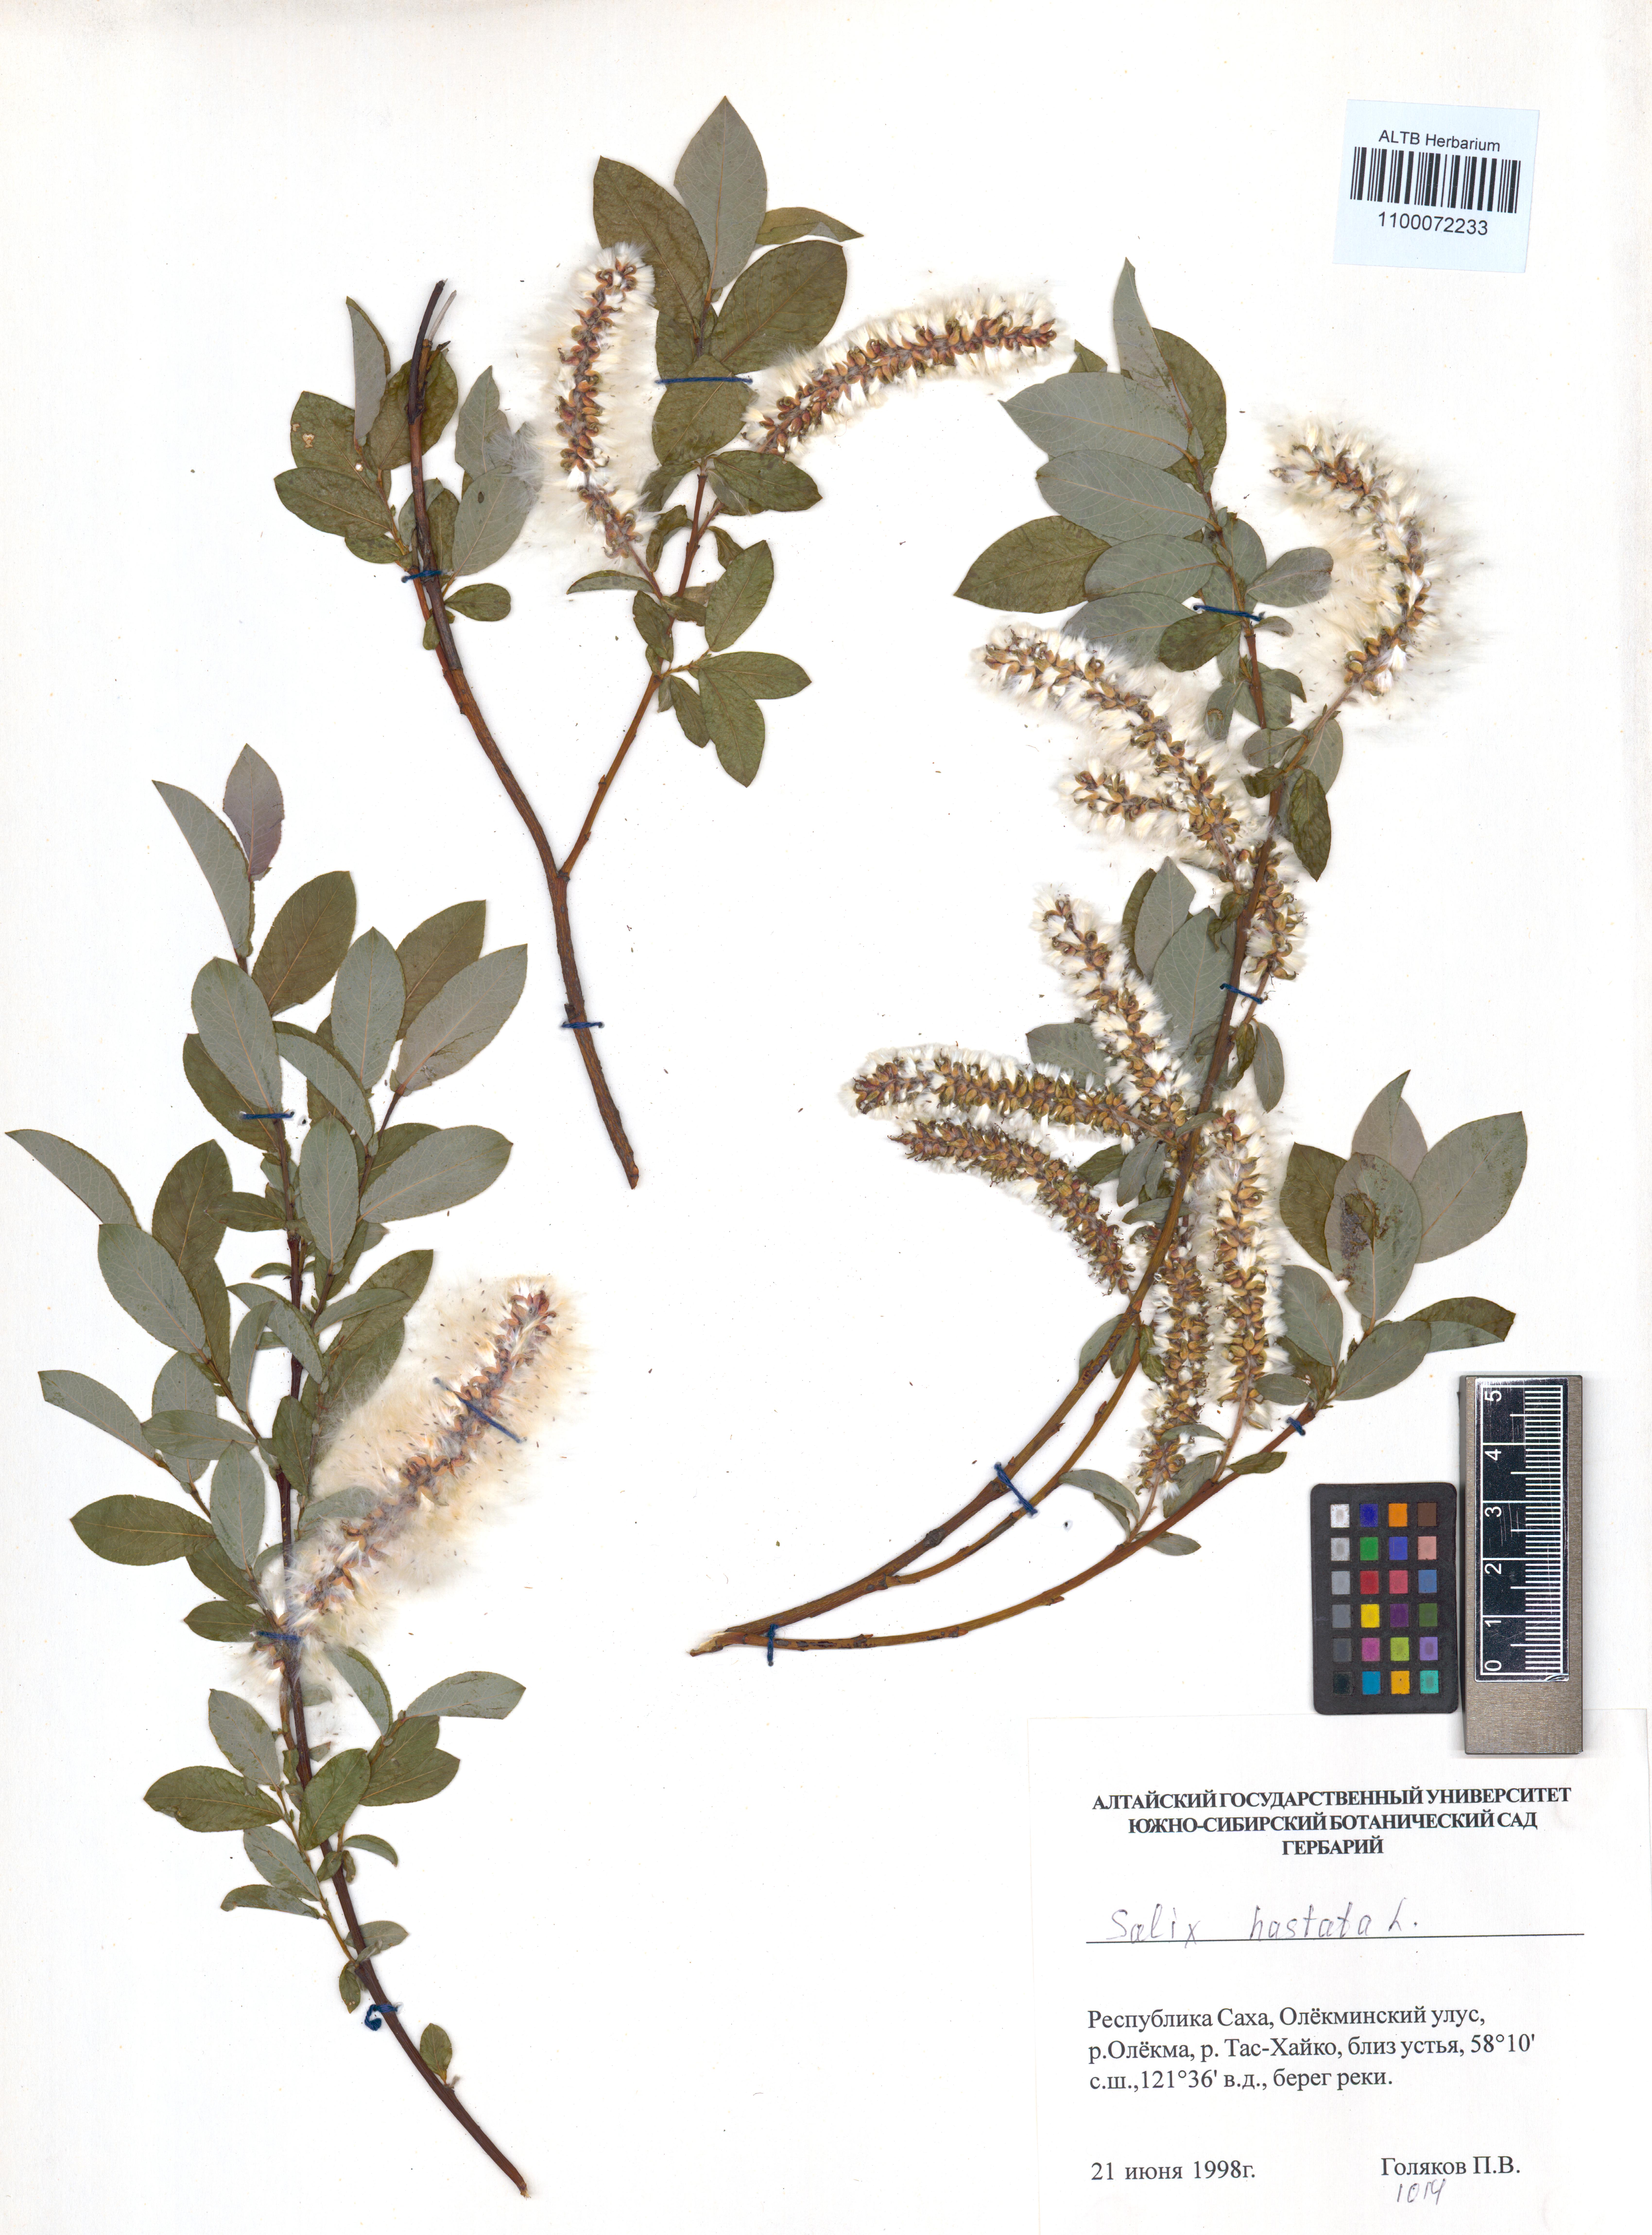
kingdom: Plantae
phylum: Tracheophyta
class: Magnoliopsida
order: Malpighiales
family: Salicaceae
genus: Salix
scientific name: Salix hastata
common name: Halberd willow
